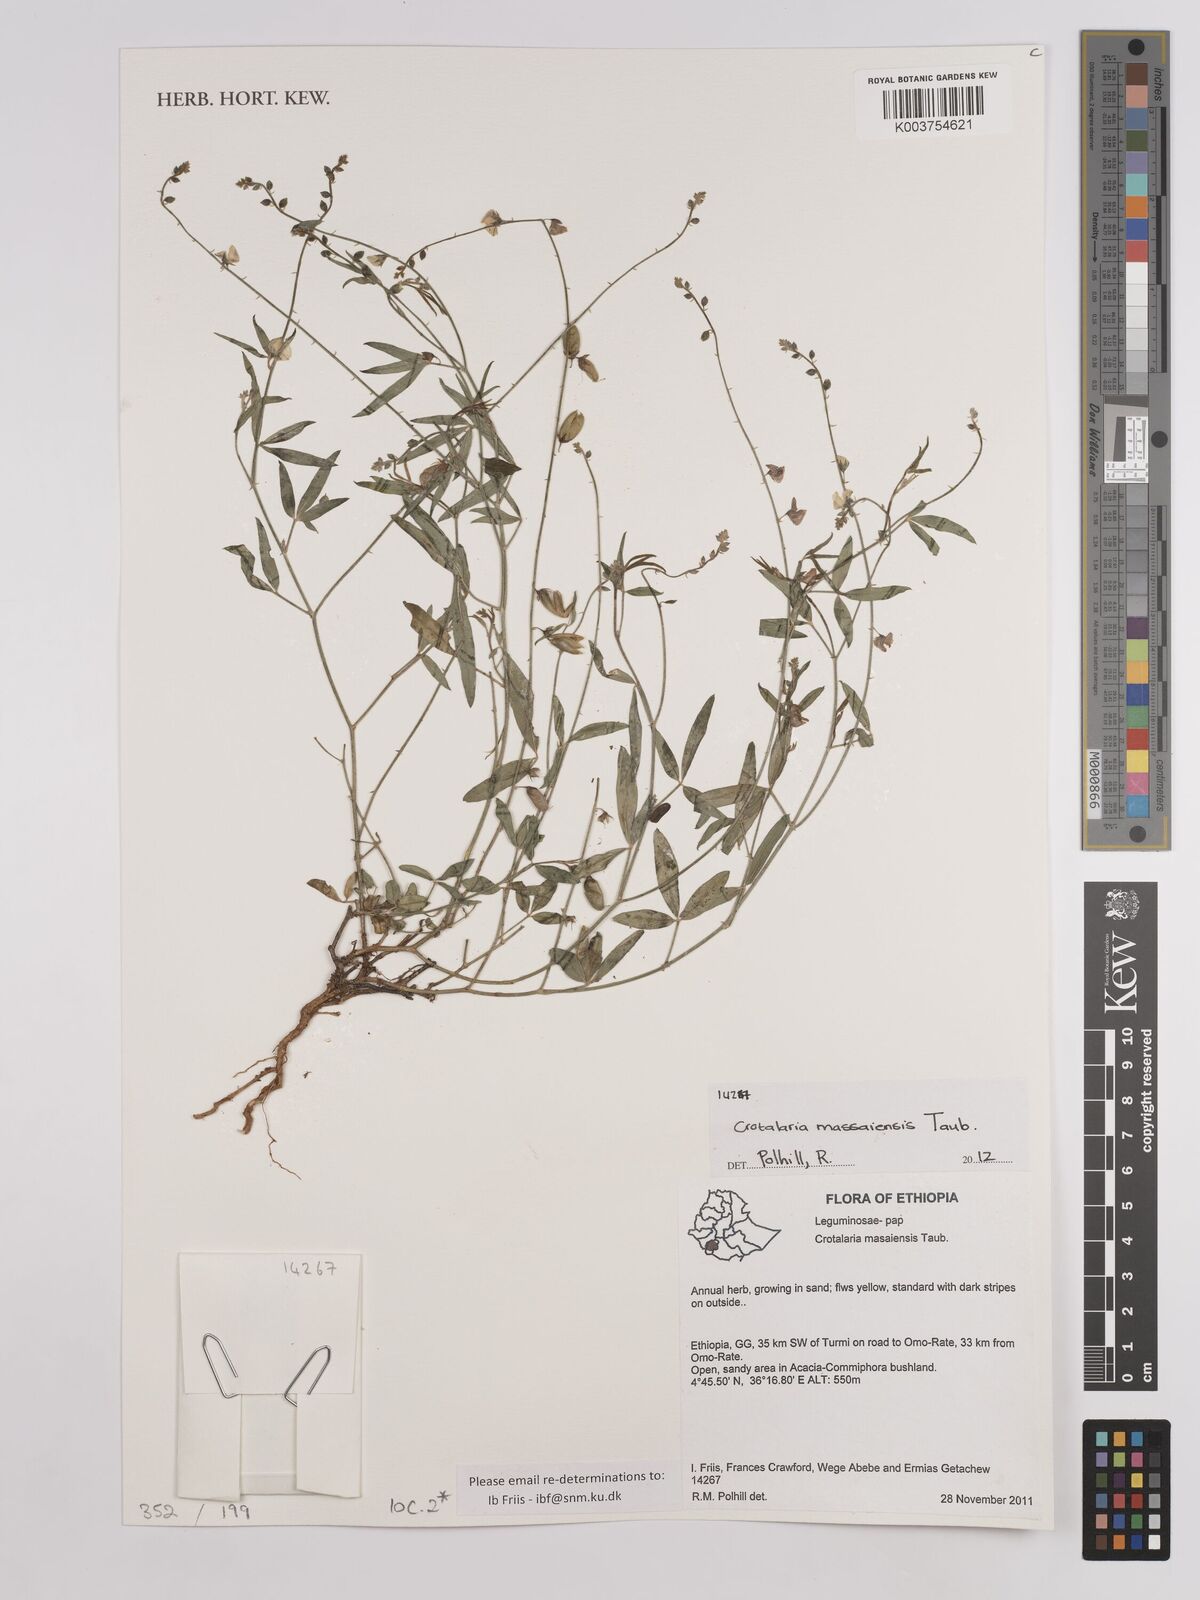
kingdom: Plantae
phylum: Tracheophyta
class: Magnoliopsida
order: Fabales
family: Fabaceae
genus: Crotalaria
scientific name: Crotalaria massaiensis
